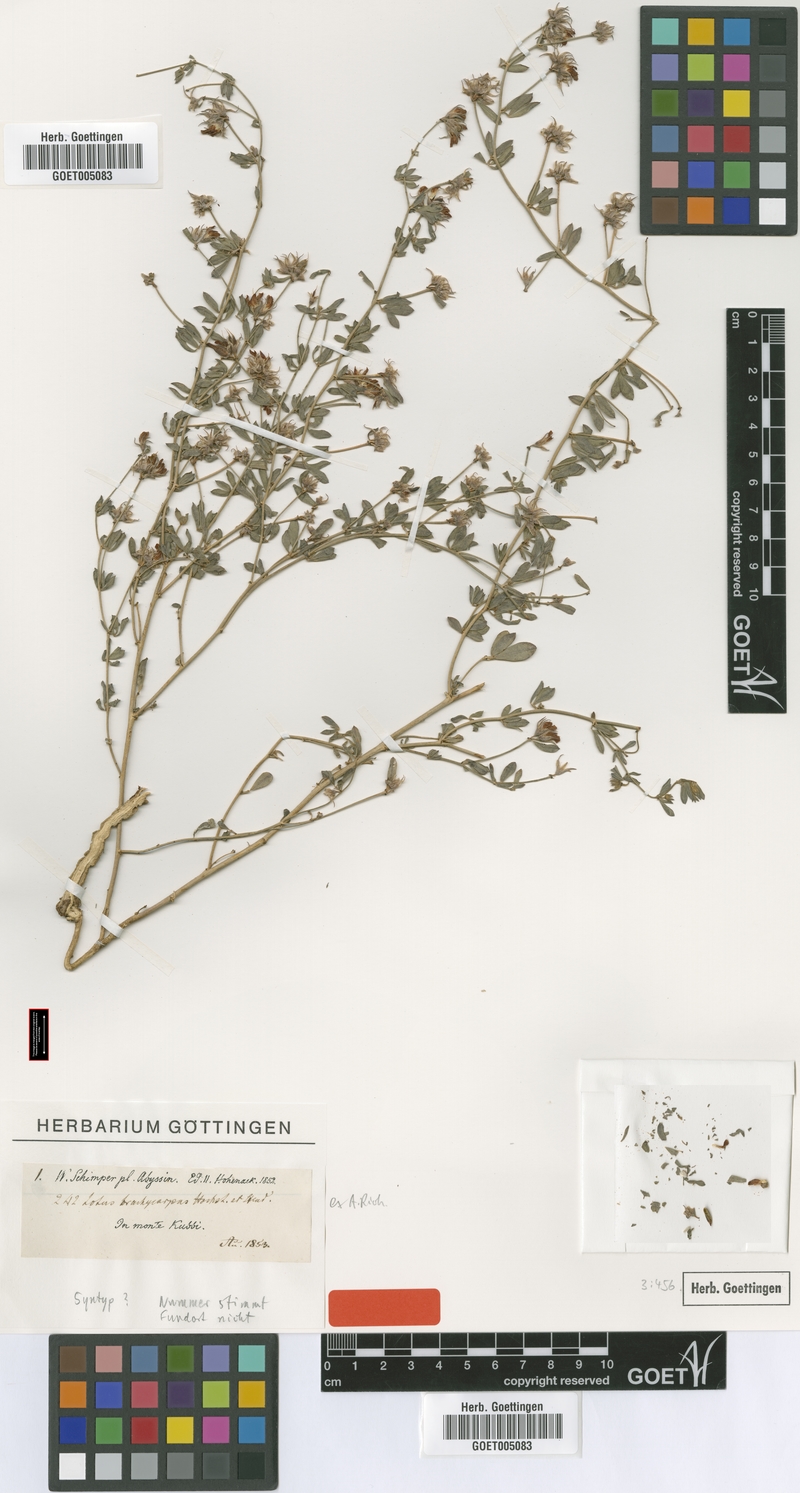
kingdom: Plantae
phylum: Tracheophyta
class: Magnoliopsida
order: Fabales
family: Fabaceae
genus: Lotus
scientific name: Lotus quinatus
